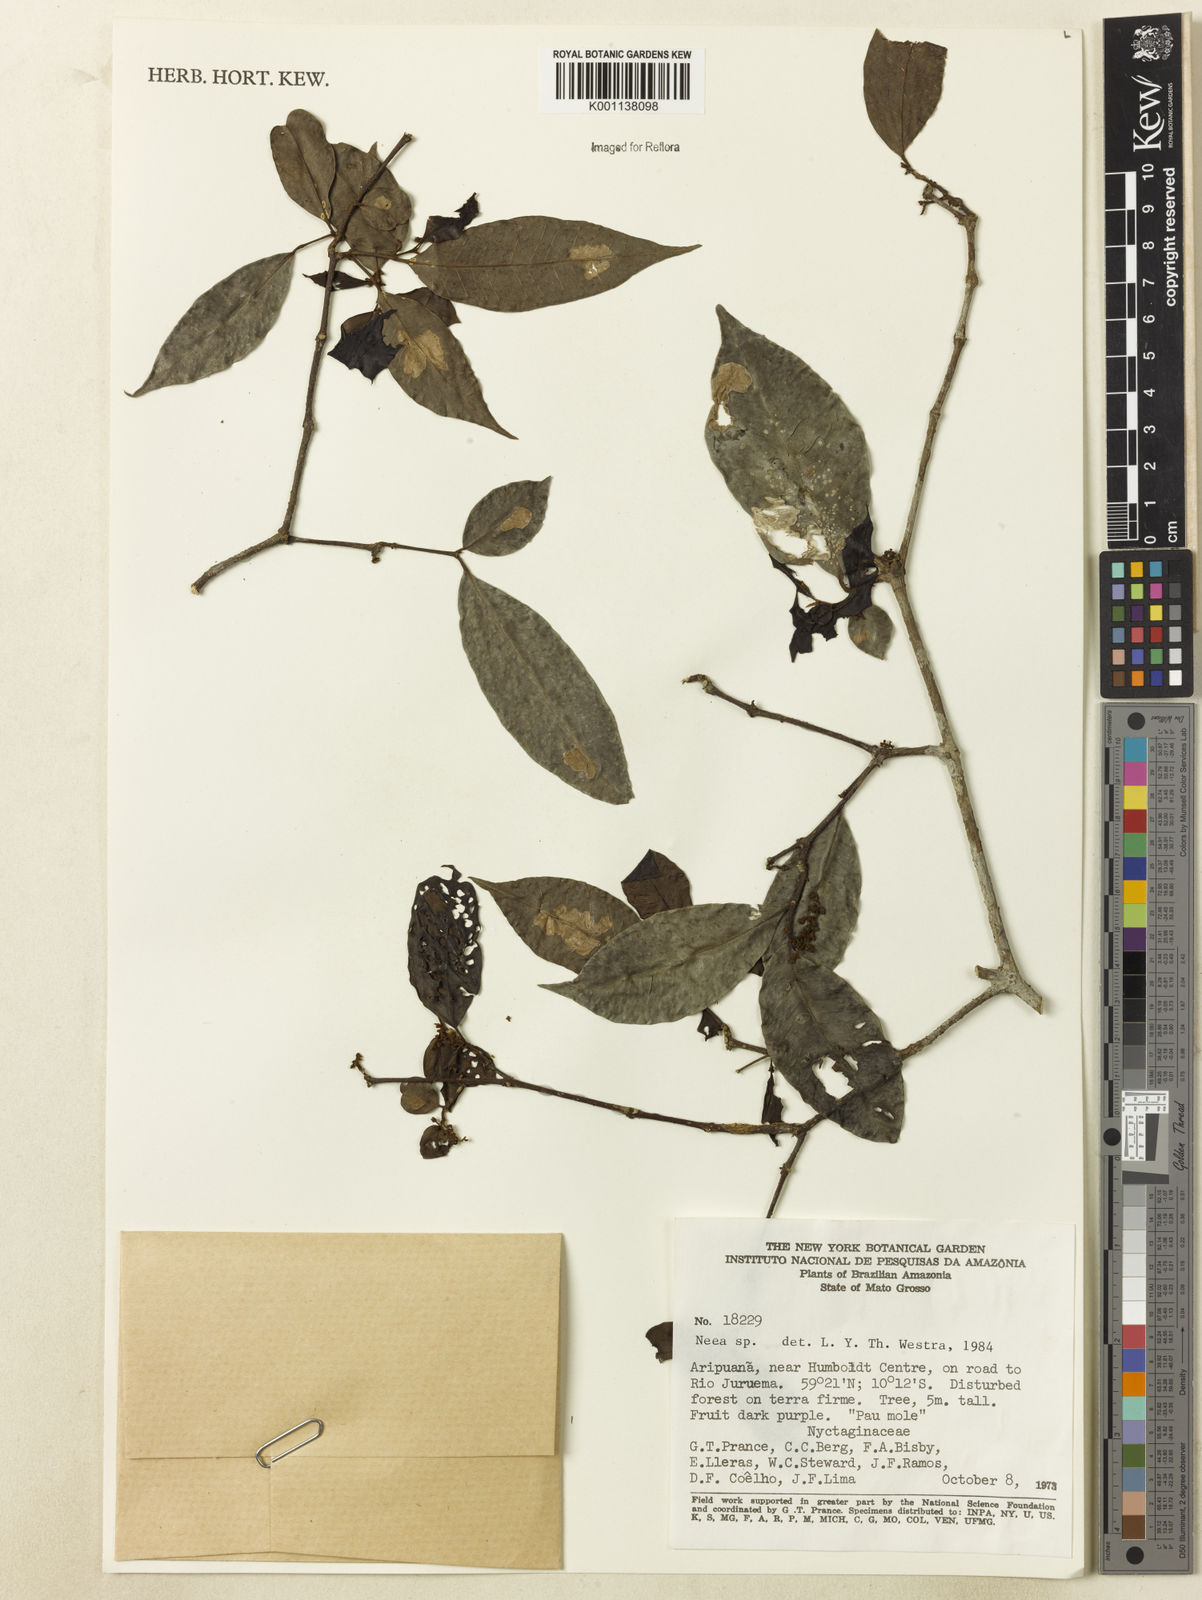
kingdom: Plantae
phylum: Tracheophyta
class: Magnoliopsida
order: Caryophyllales
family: Nyctaginaceae
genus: Neea
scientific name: Neea
